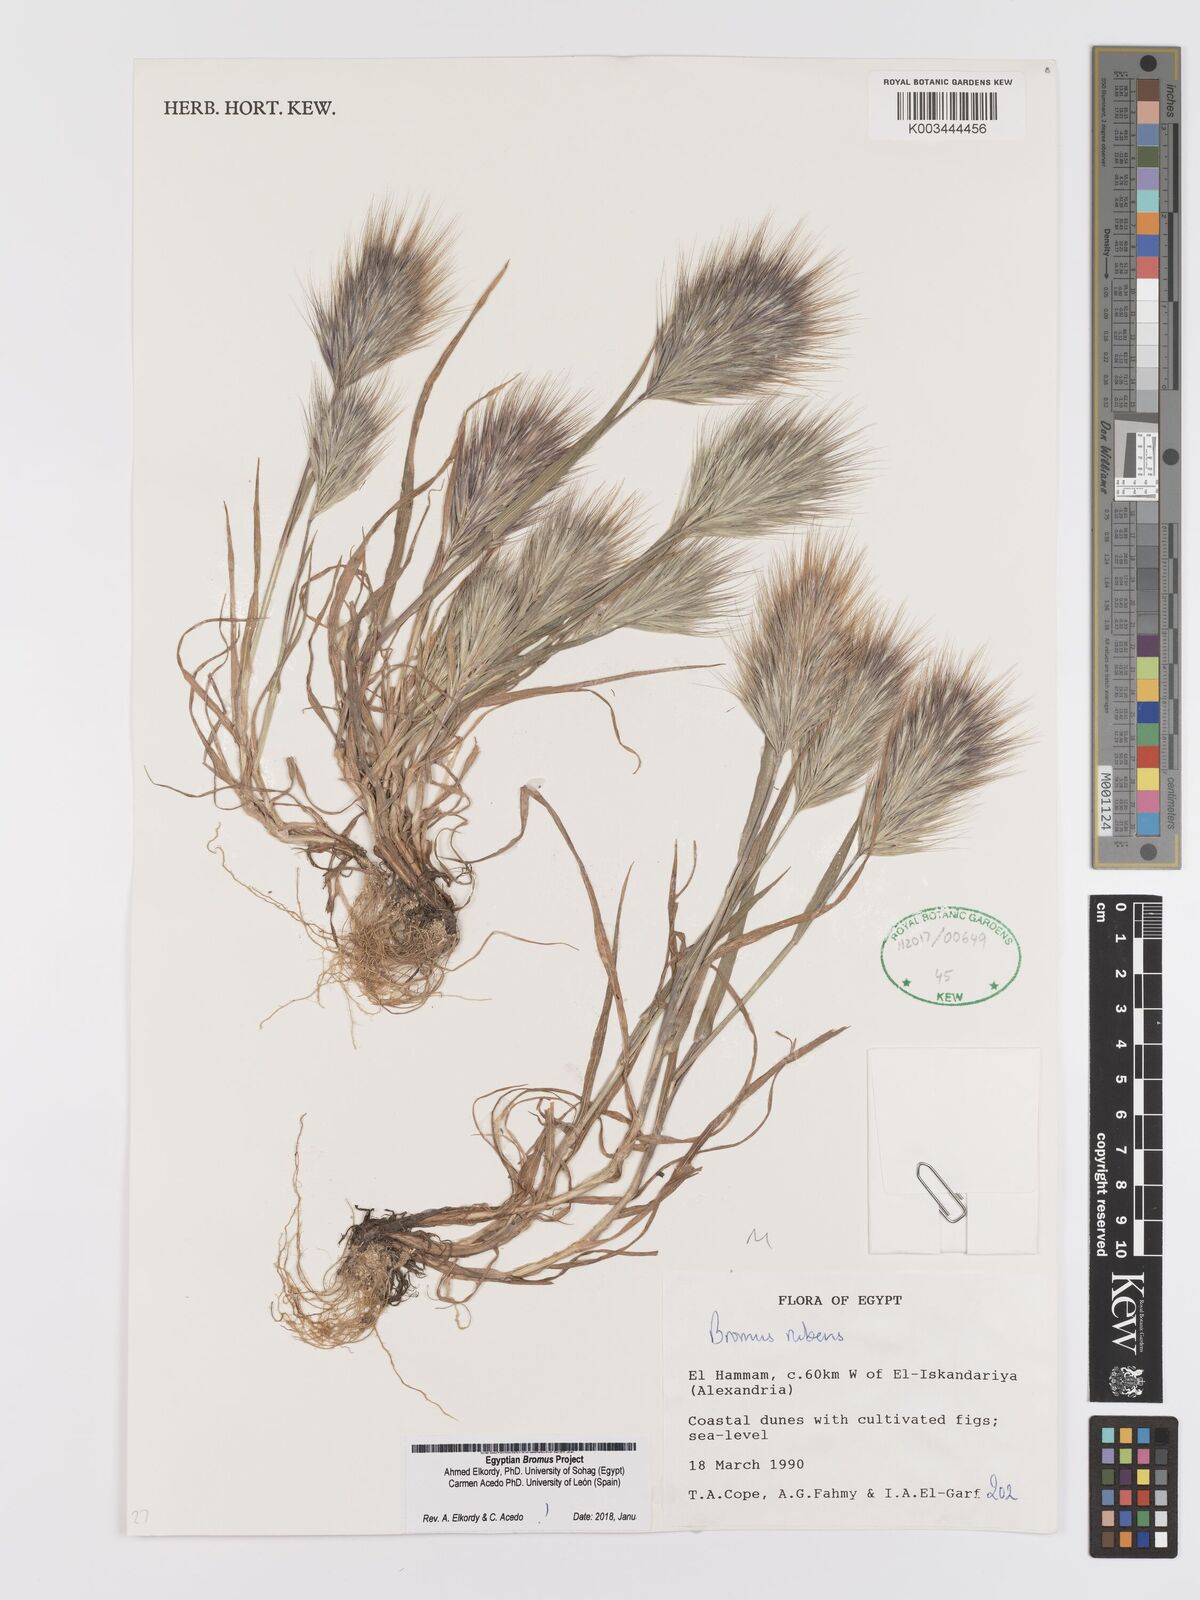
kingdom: Plantae
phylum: Tracheophyta
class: Liliopsida
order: Poales
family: Poaceae
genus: Bromus
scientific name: Bromus rubens
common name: Red brome
